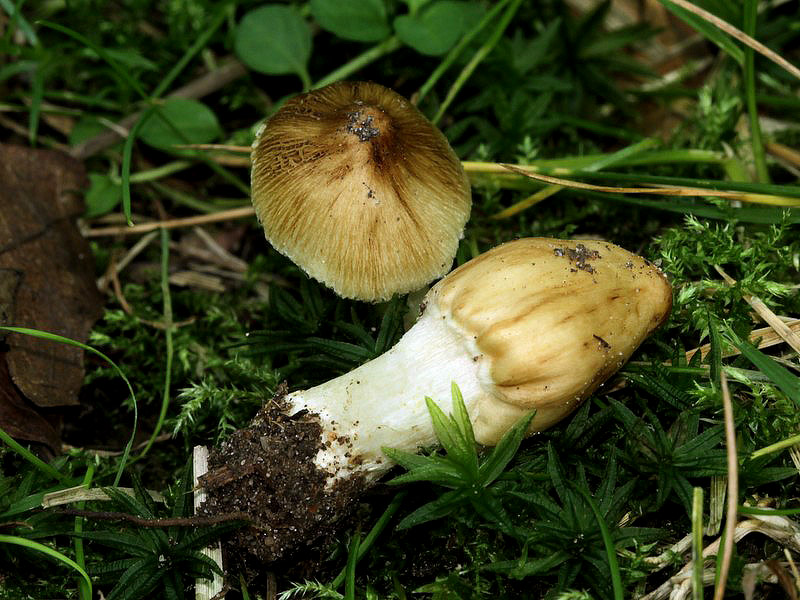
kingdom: Fungi
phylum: Basidiomycota
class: Agaricomycetes
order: Agaricales
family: Inocybaceae
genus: Pseudosperma
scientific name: Pseudosperma rimosum
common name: gulbladet trævlhat
